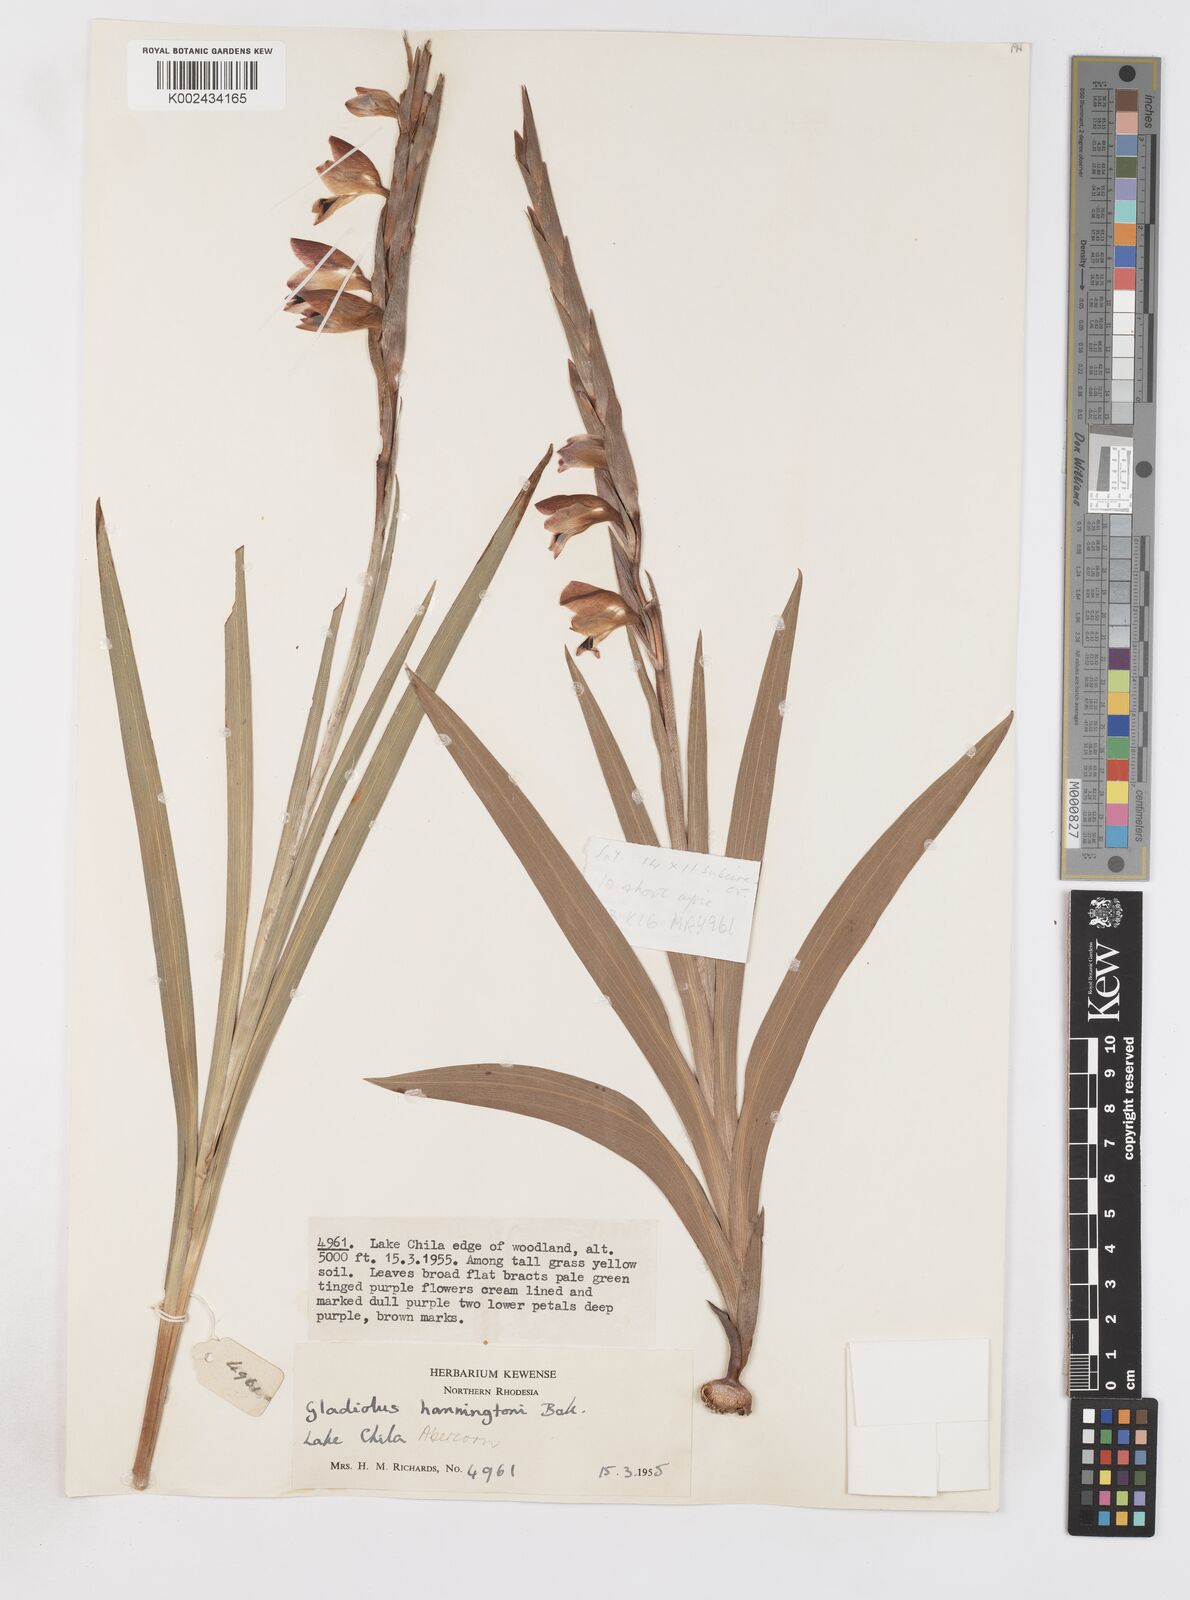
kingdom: Plantae
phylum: Tracheophyta
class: Liliopsida
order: Asparagales
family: Iridaceae
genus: Gladiolus
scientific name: Gladiolus gregarius
